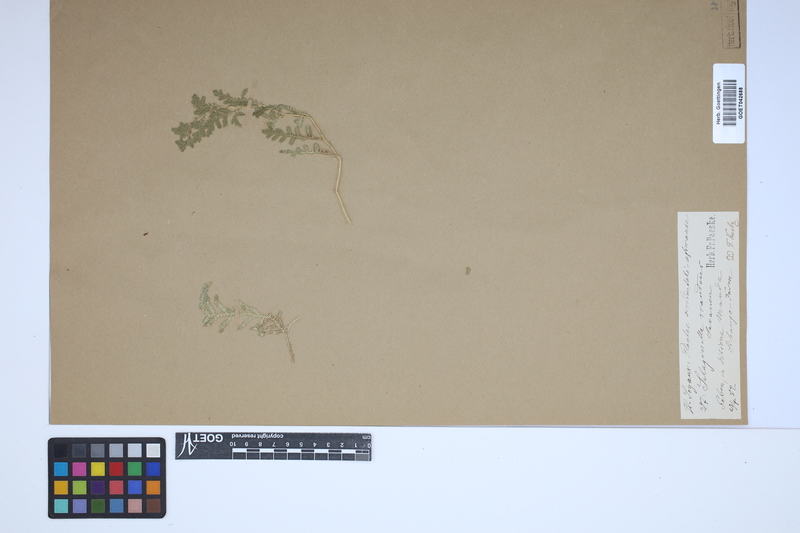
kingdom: Plantae
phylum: Tracheophyta
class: Lycopodiopsida
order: Selaginellales
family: Selaginellaceae
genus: Selaginella
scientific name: Selaginella myosurus
